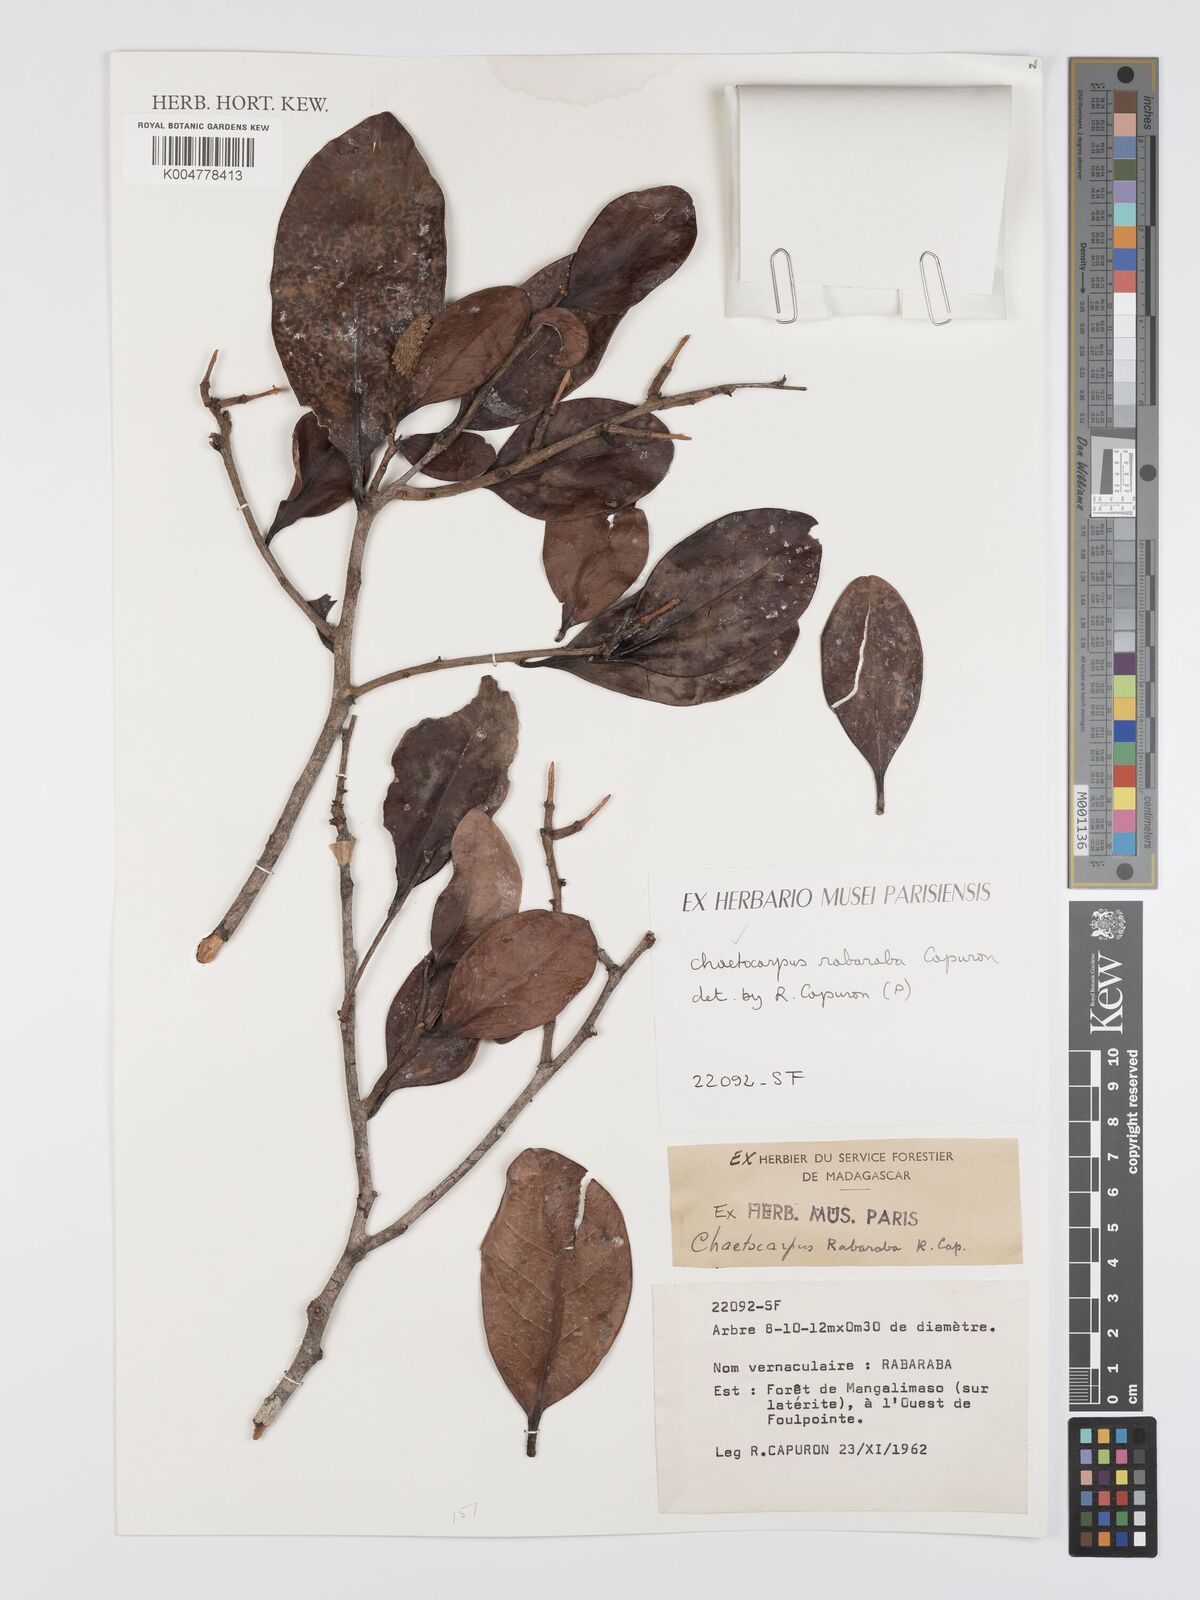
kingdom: Plantae
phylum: Tracheophyta
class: Magnoliopsida
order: Malpighiales
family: Peraceae
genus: Chaetocarpus
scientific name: Chaetocarpus rabaraba
